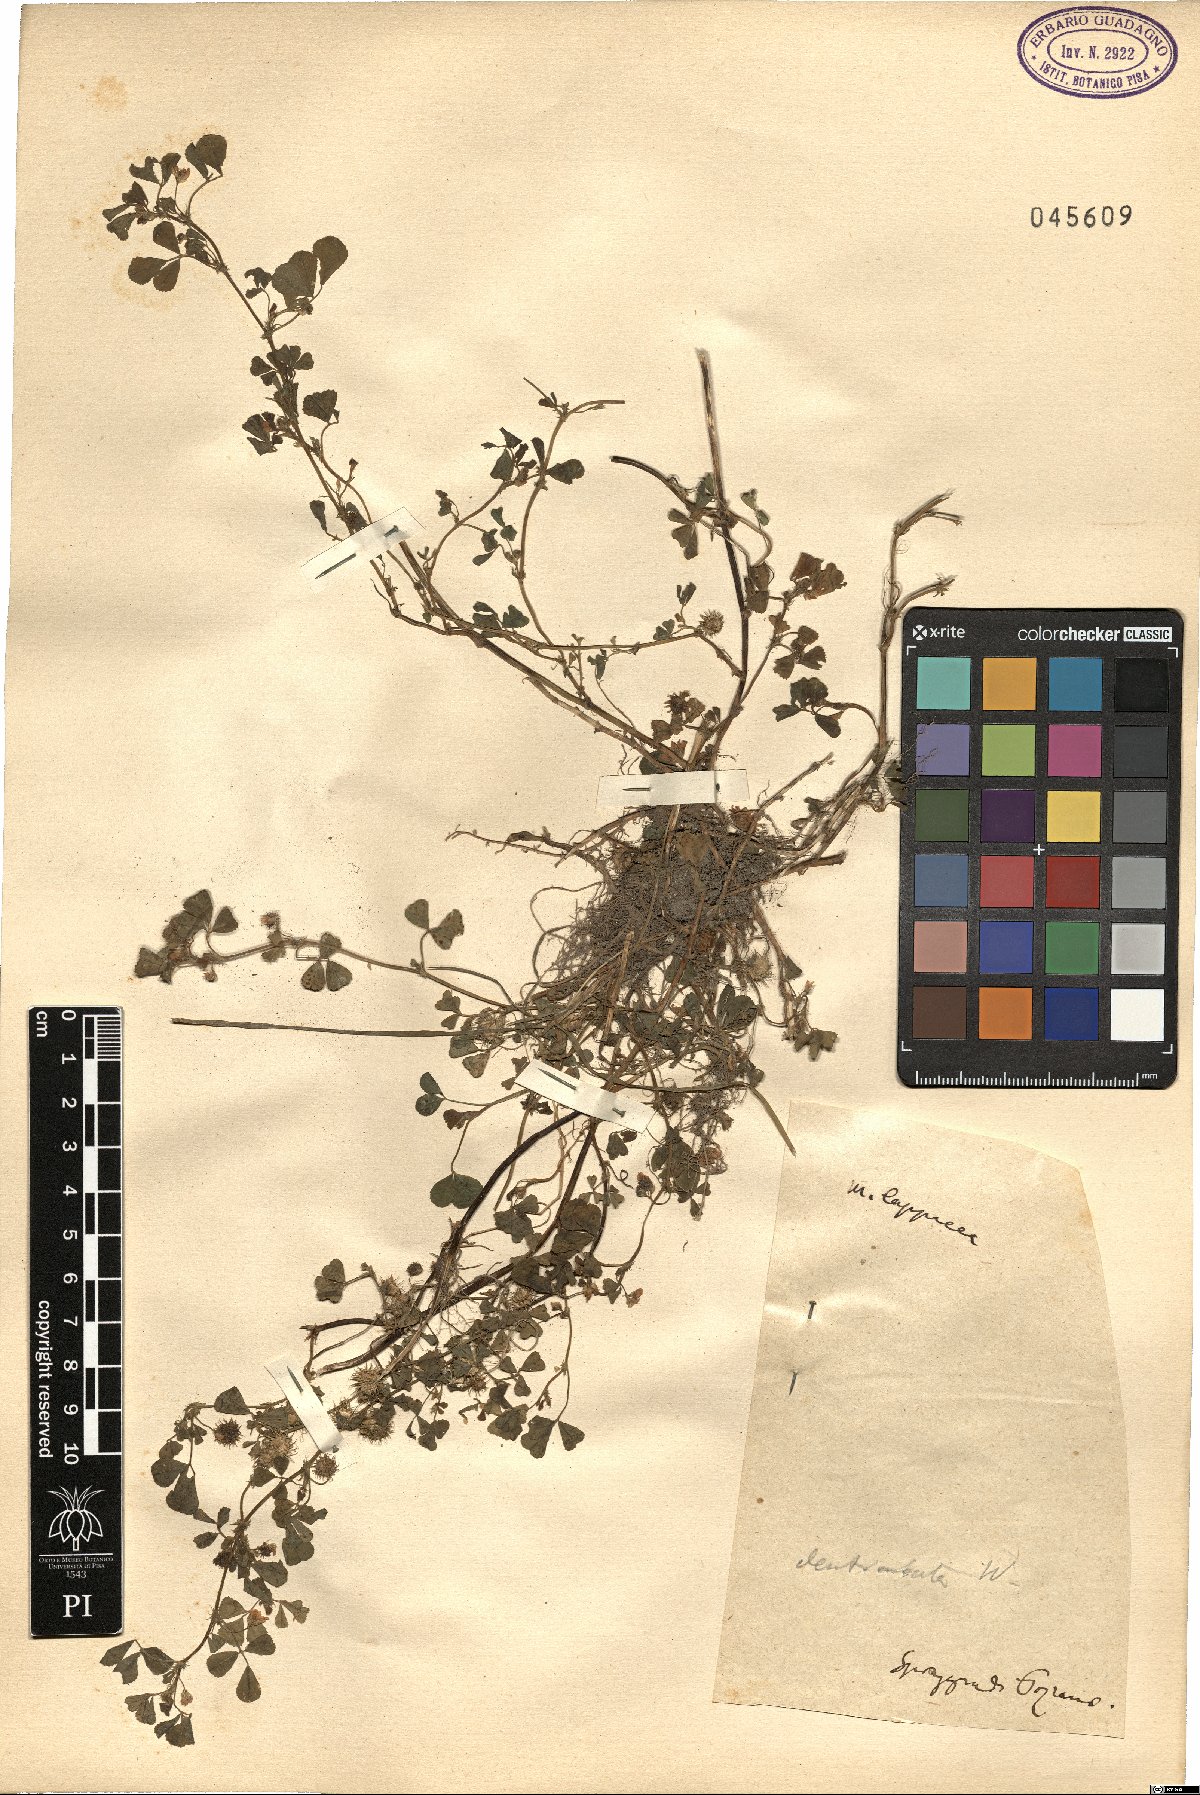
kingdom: Plantae
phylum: Tracheophyta
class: Magnoliopsida
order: Fabales
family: Fabaceae
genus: Medicago
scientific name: Medicago polymorpha
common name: Burclover
